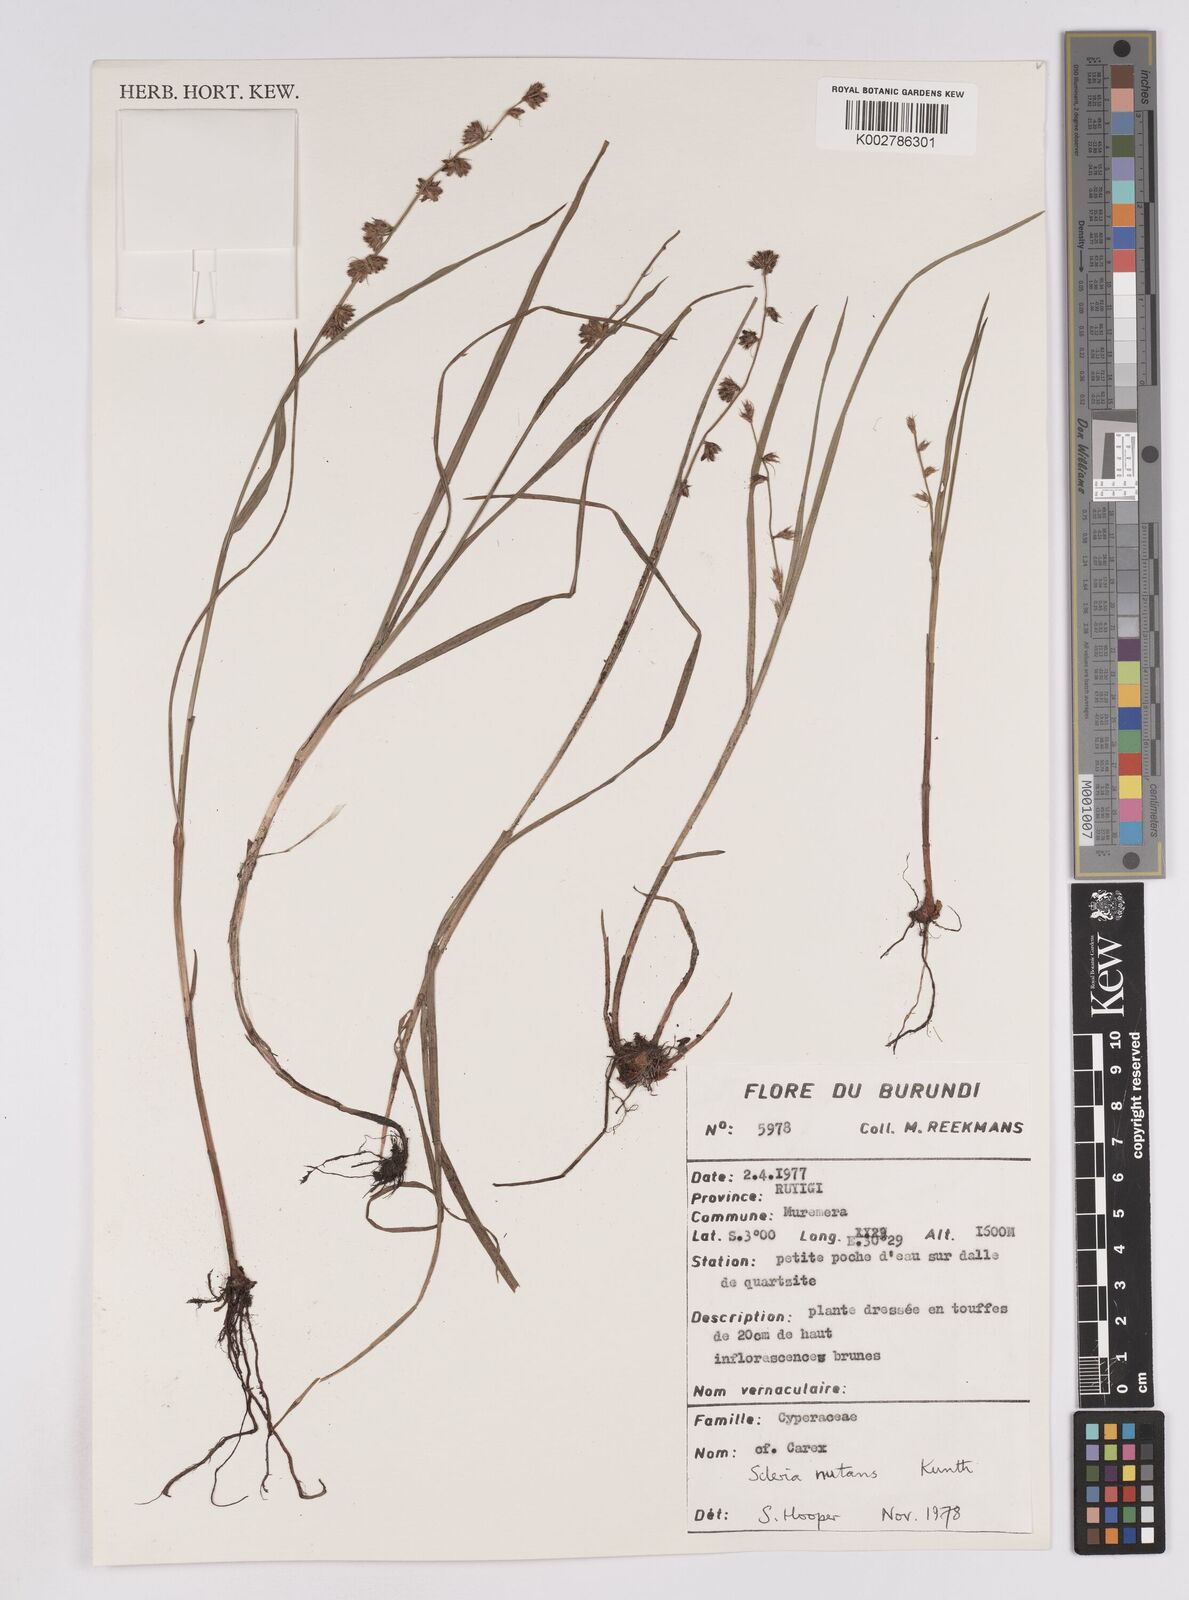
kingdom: Plantae
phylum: Tracheophyta
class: Liliopsida
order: Poales
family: Cyperaceae
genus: Scleria
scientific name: Scleria brownii
